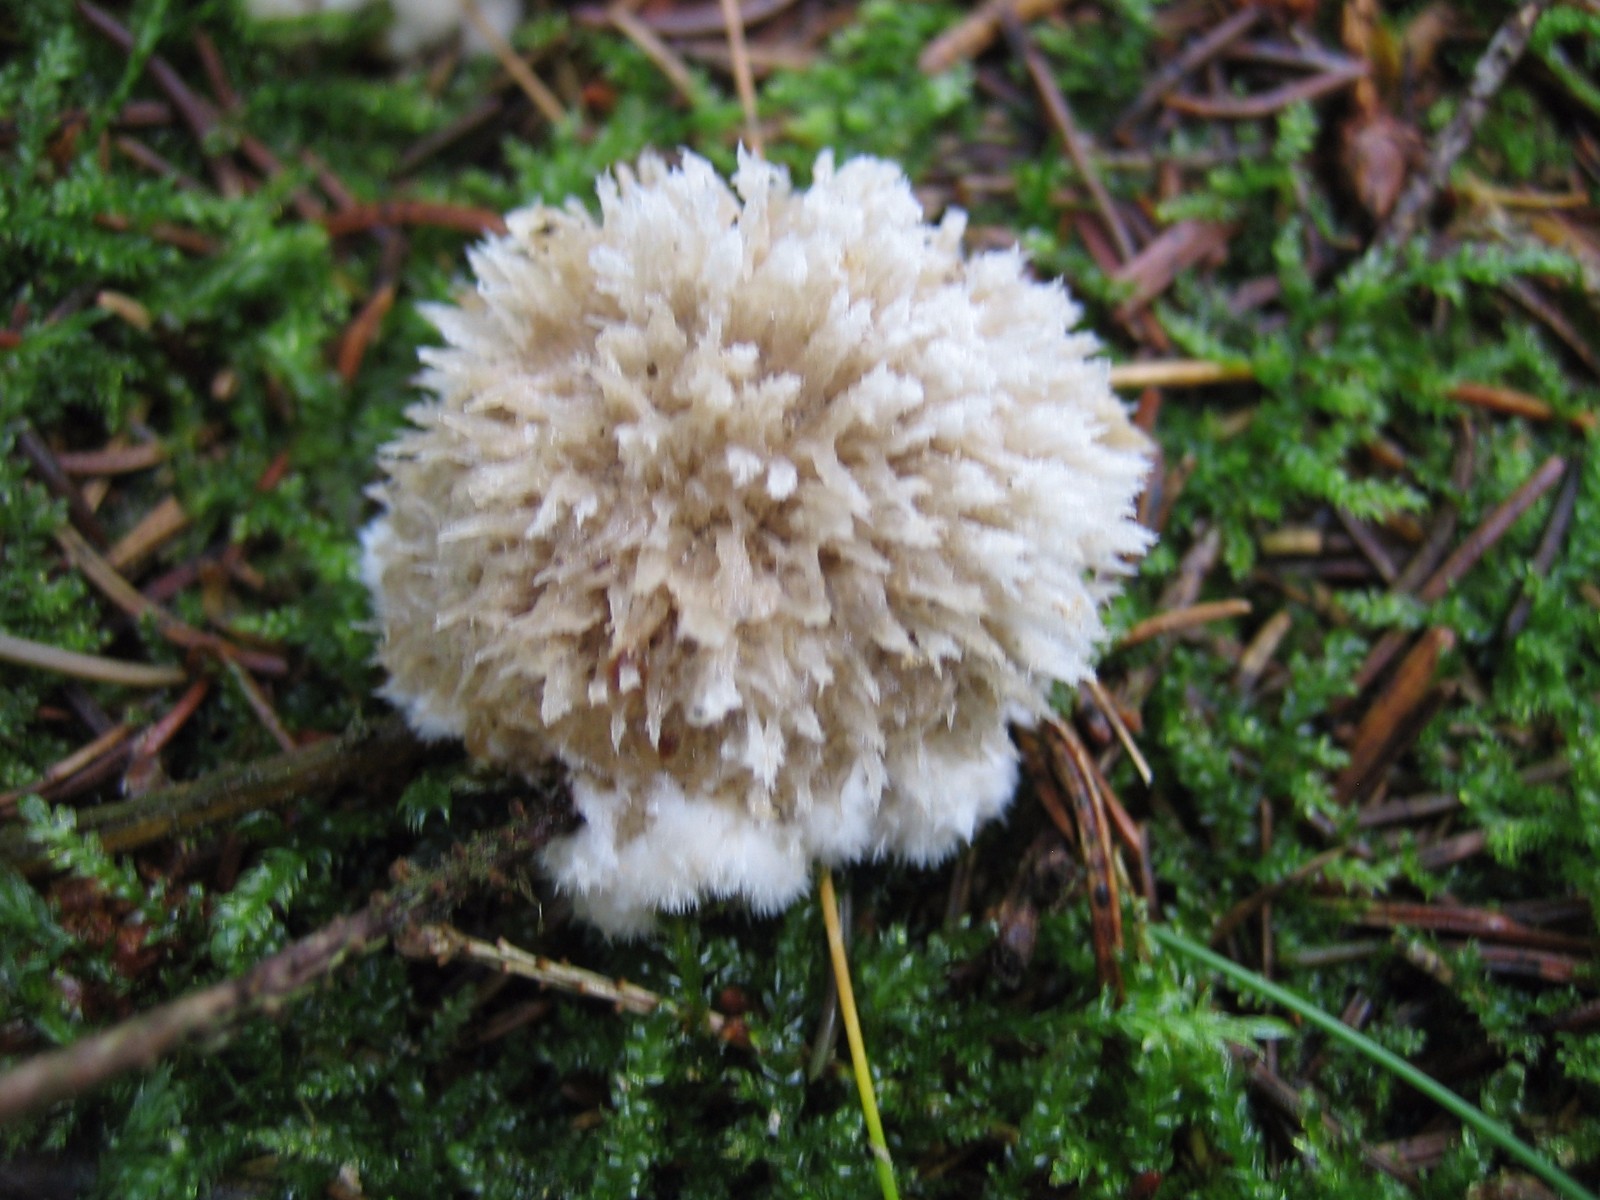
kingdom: Fungi
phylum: Basidiomycota
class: Agaricomycetes
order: Polyporales
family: Dacryobolaceae
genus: Postia
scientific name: Postia ptychogaster
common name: støvende kødporesvamp
